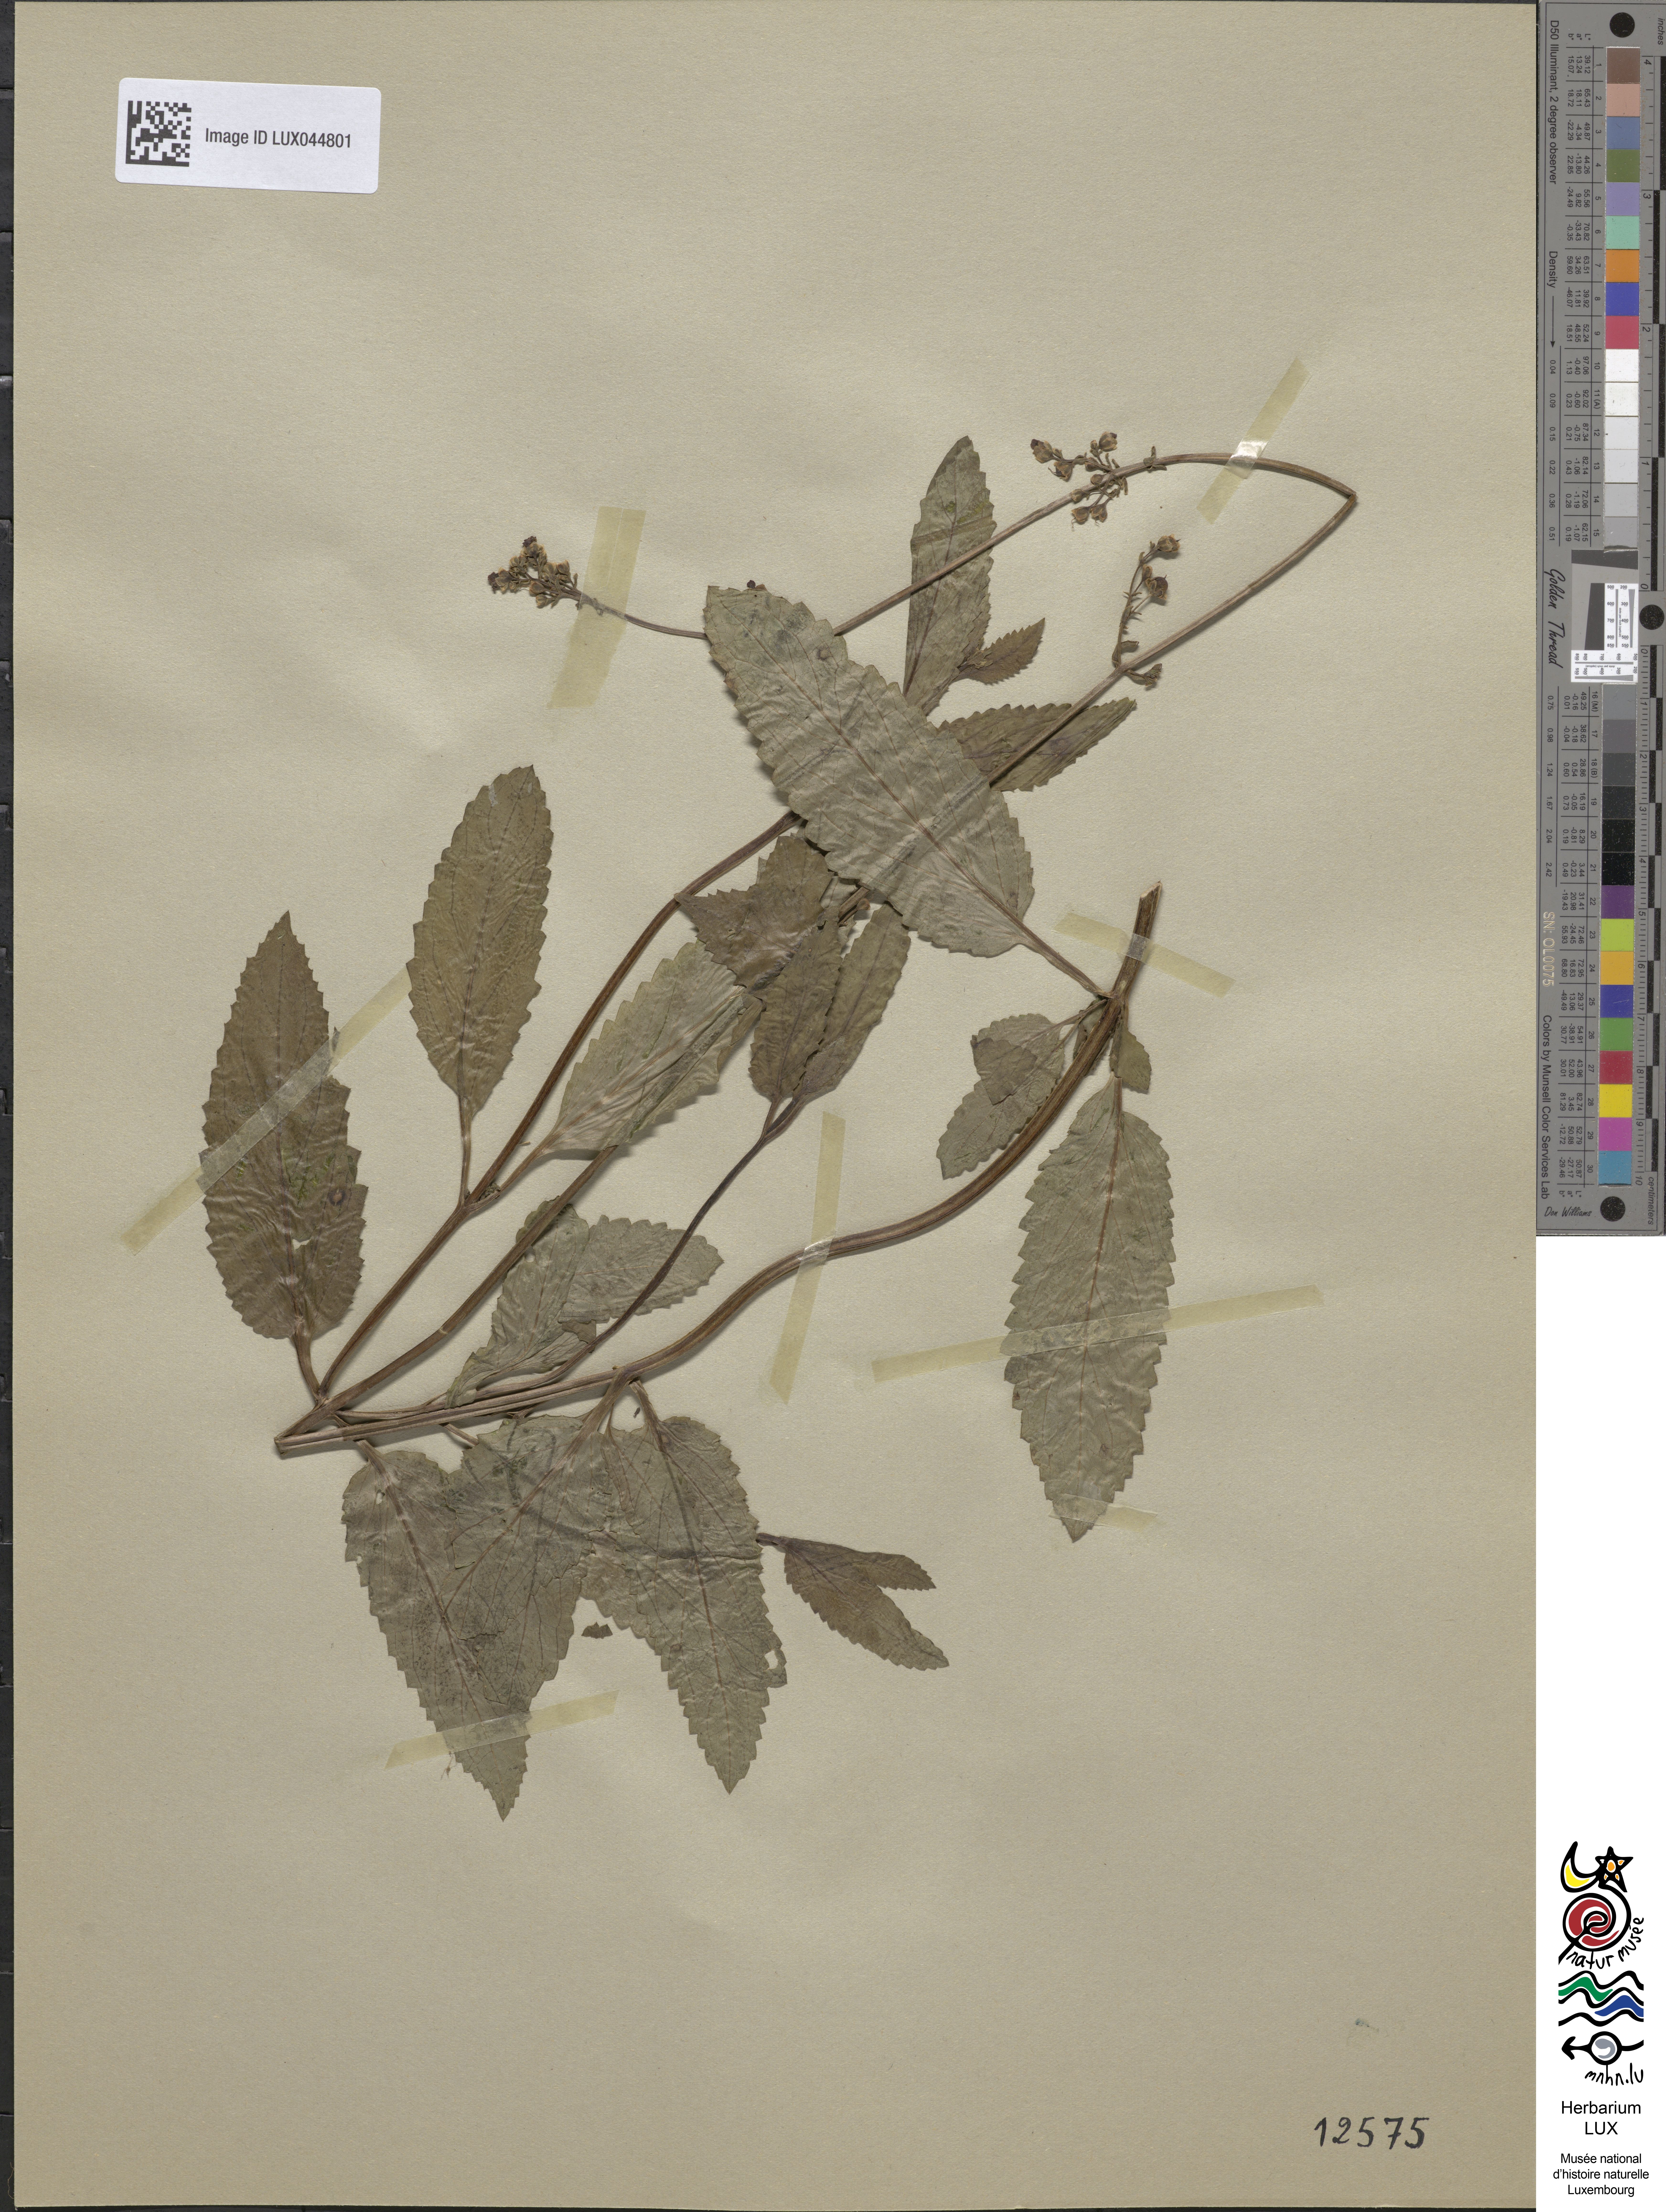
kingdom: Plantae
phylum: Tracheophyta
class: Magnoliopsida
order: Lamiales
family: Scrophulariaceae
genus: Scrophularia
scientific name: Scrophularia auriculata
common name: Water betony
